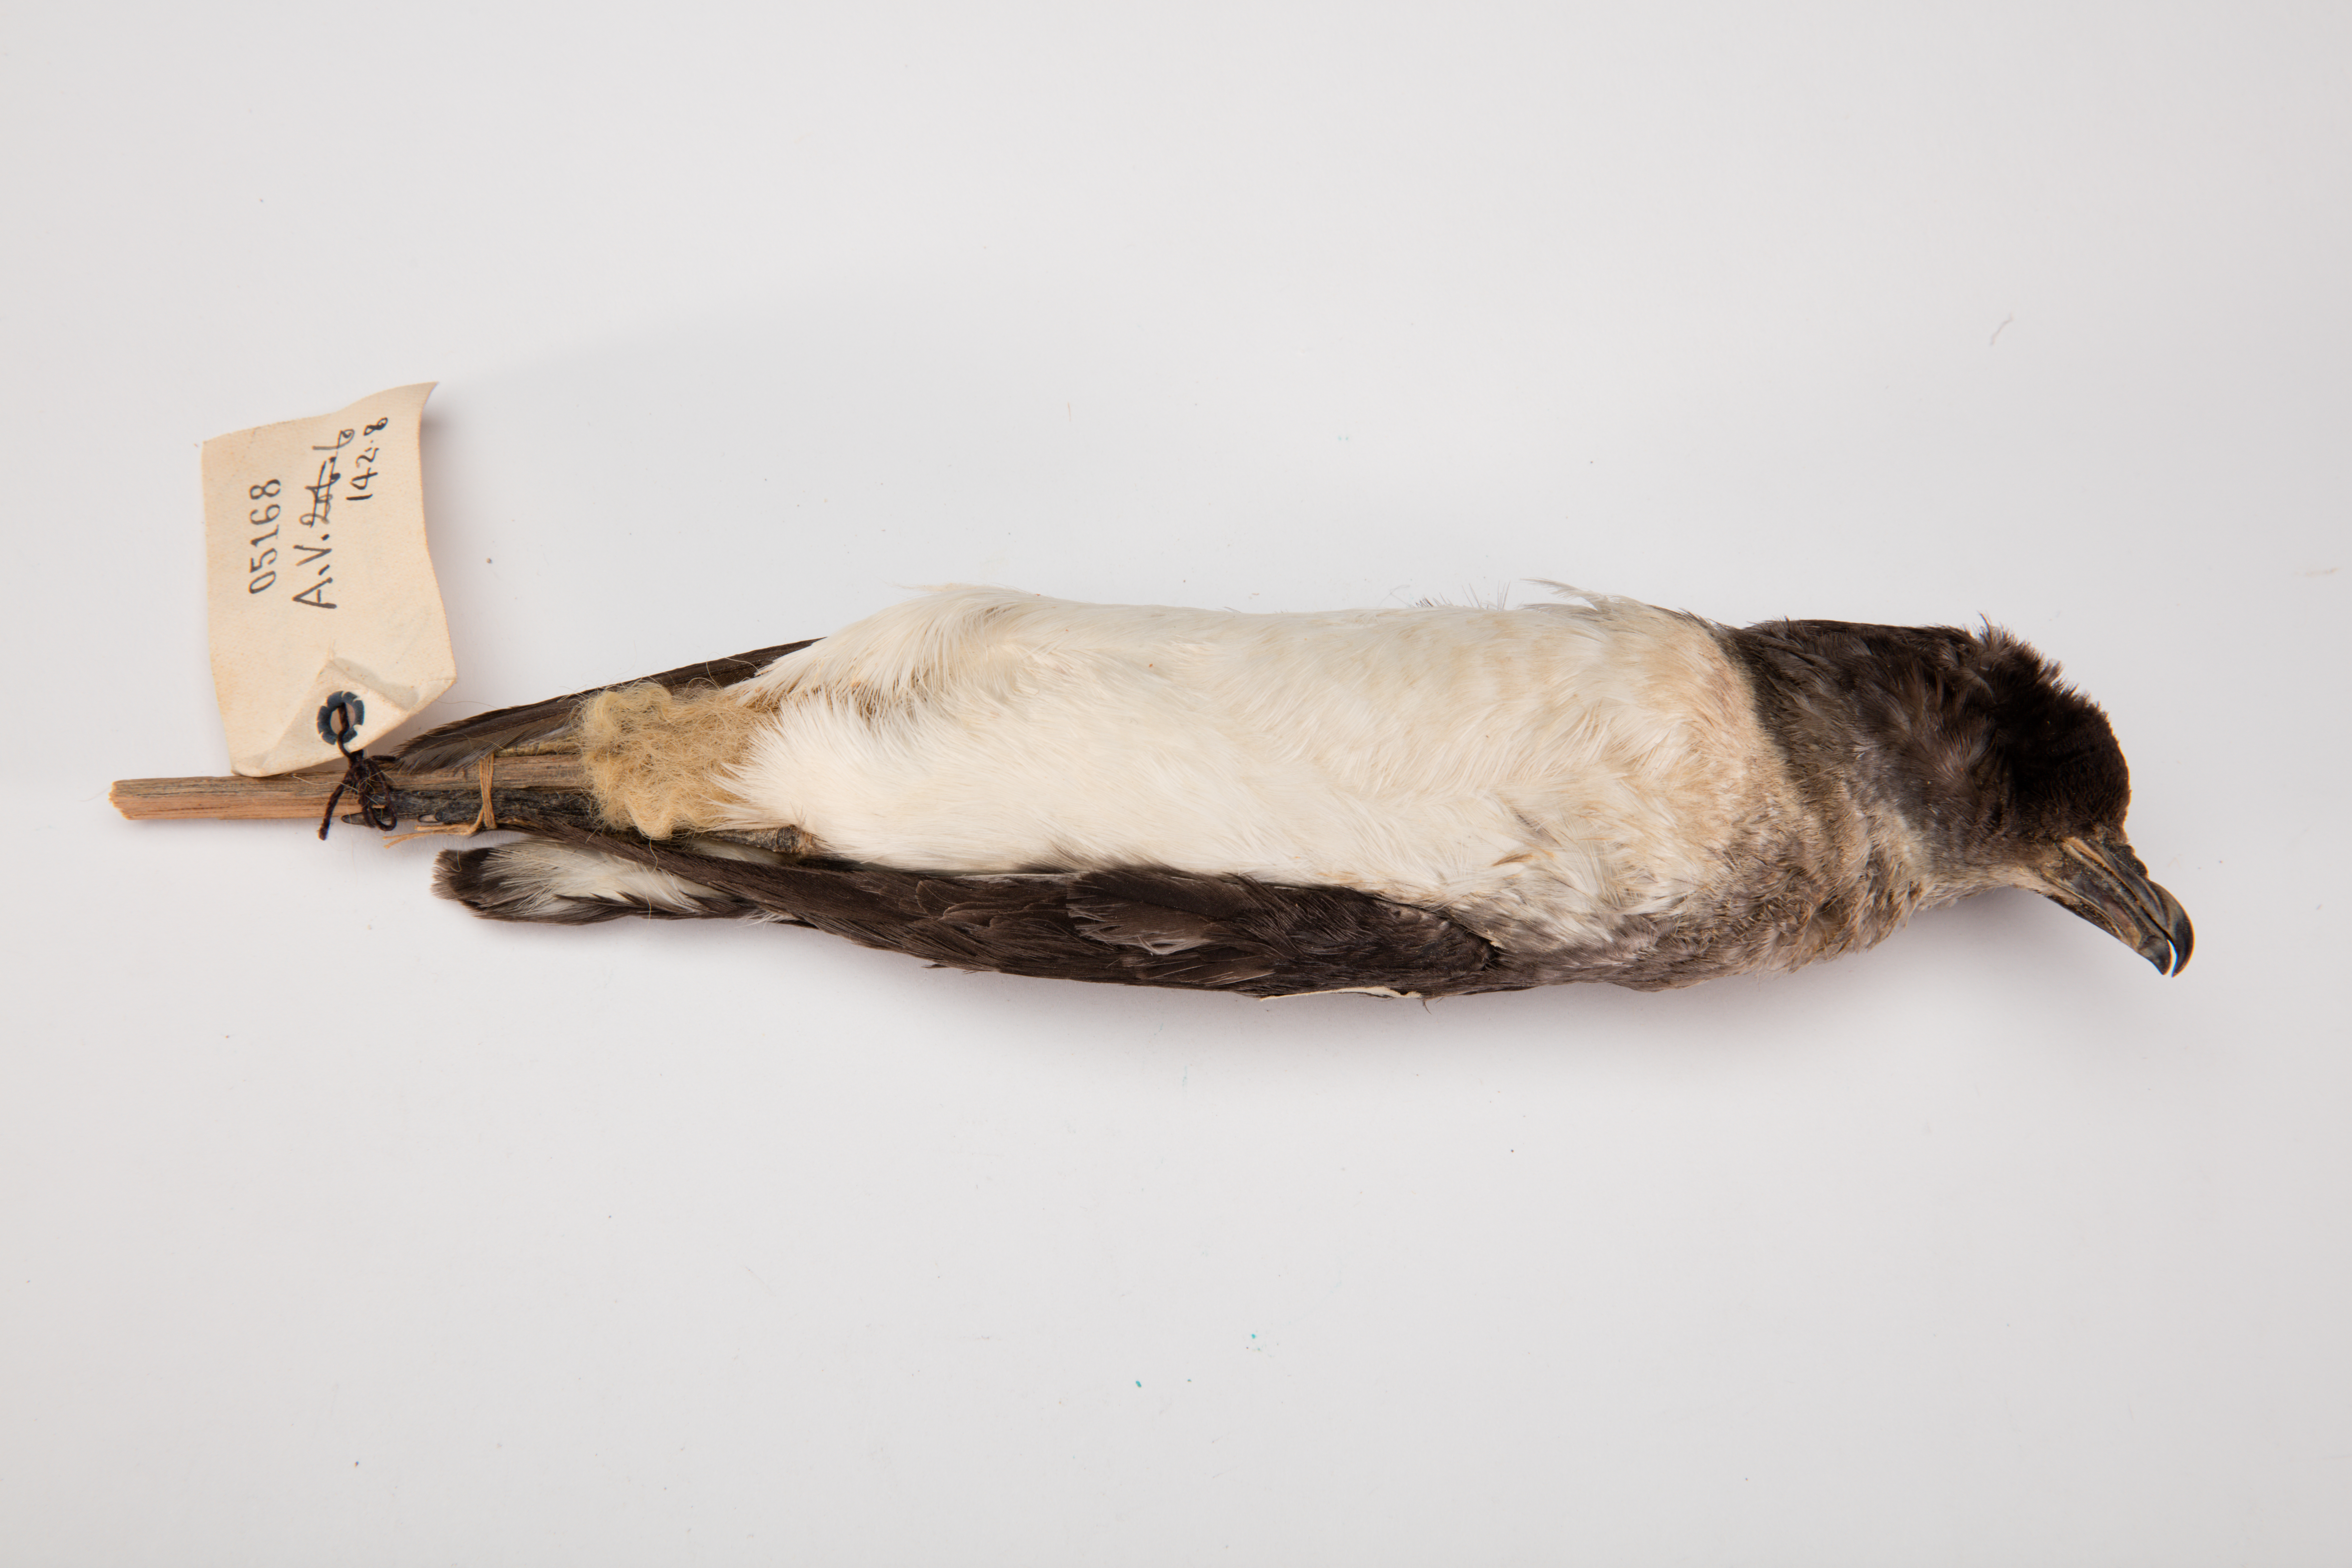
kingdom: Animalia
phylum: Chordata
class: Aves
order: Procellariiformes
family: Pelecanoididae
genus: Pelecanoides
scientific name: Pelecanoides urinatrix
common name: Common diving-petrel
